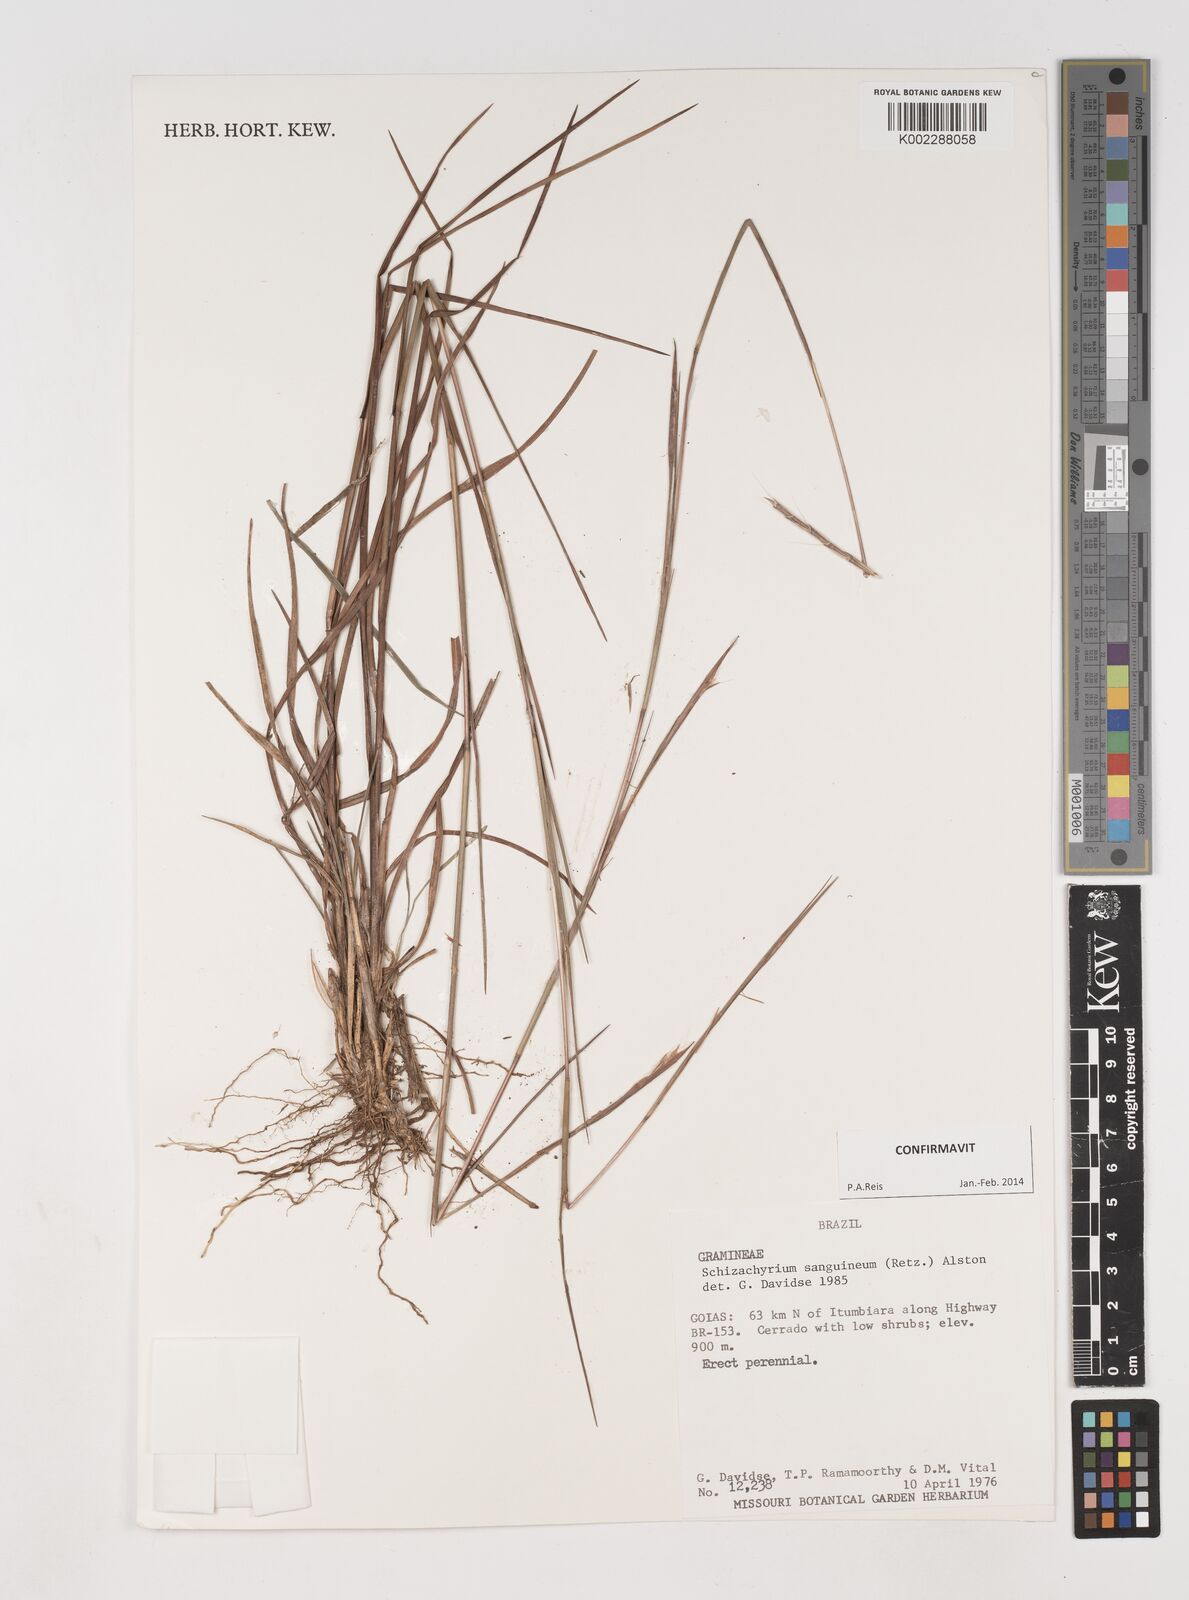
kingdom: Plantae
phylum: Tracheophyta
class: Liliopsida
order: Poales
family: Poaceae
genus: Schizachyrium
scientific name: Schizachyrium sanguineum
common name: Crimson bluestem
